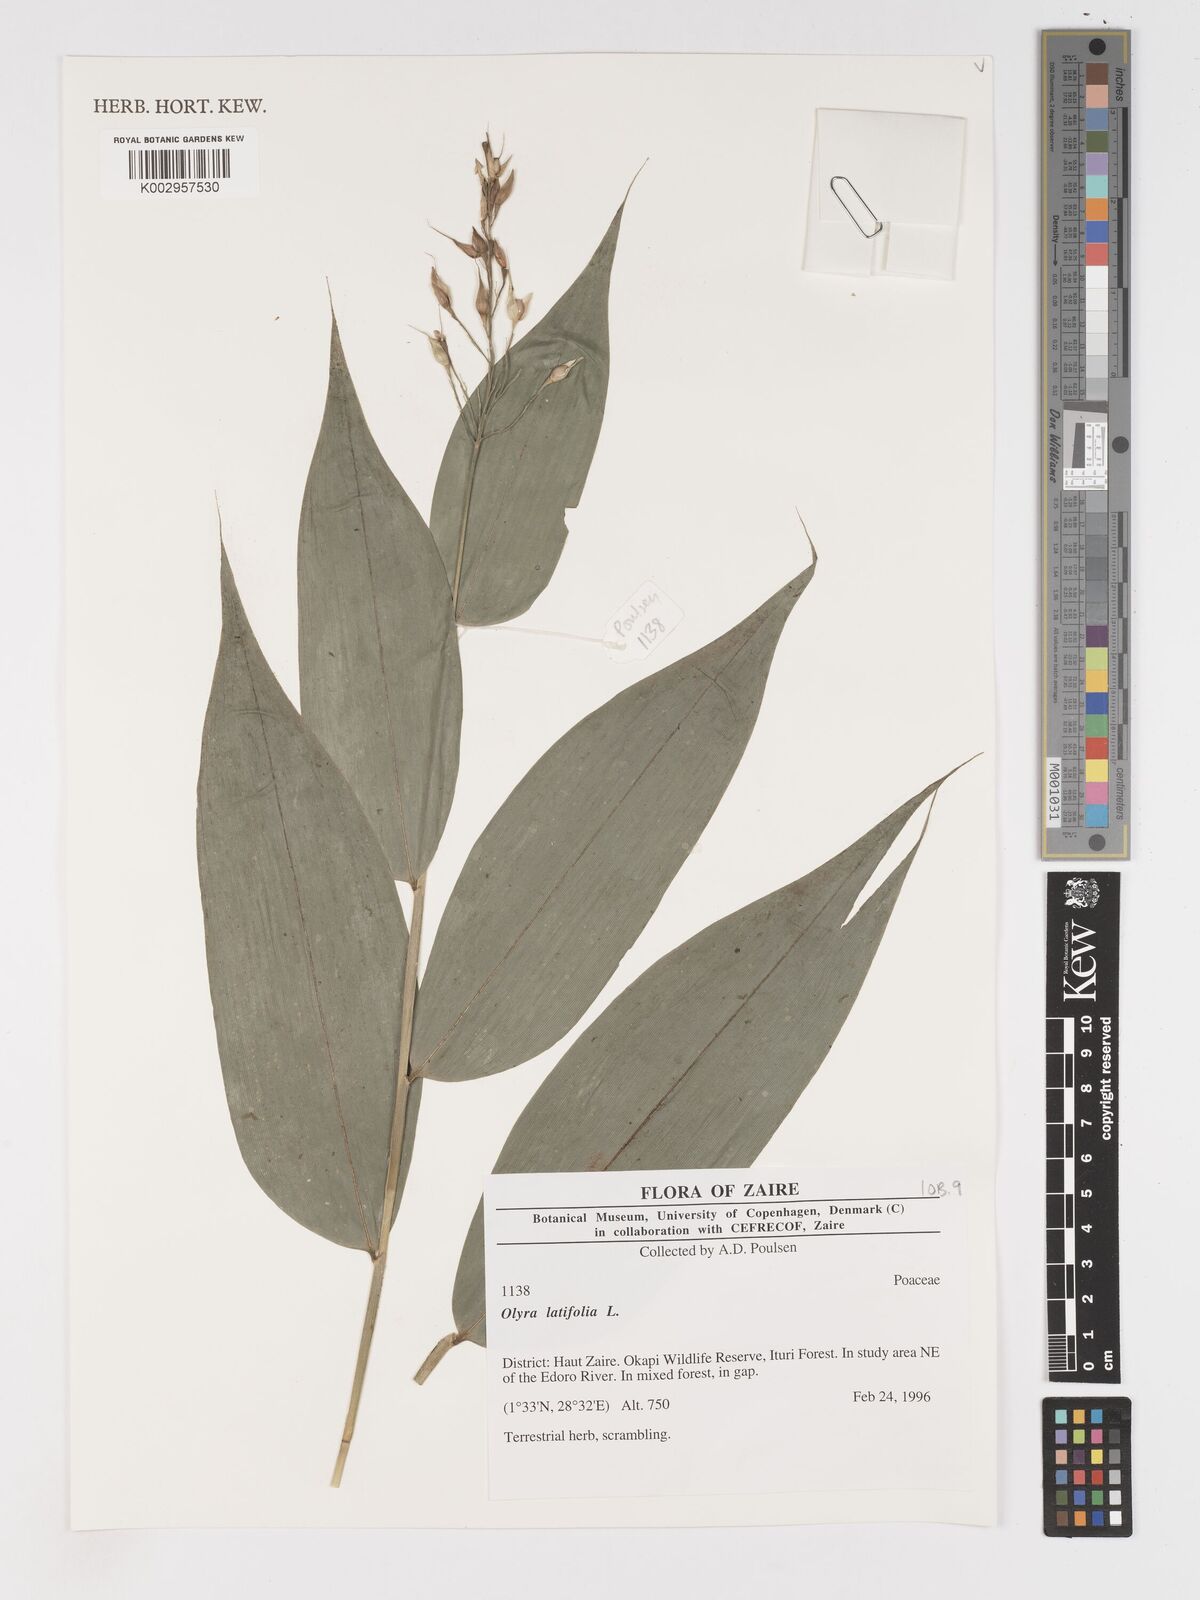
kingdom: Plantae
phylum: Tracheophyta
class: Liliopsida
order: Poales
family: Poaceae
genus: Olyra
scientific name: Olyra latifolia
